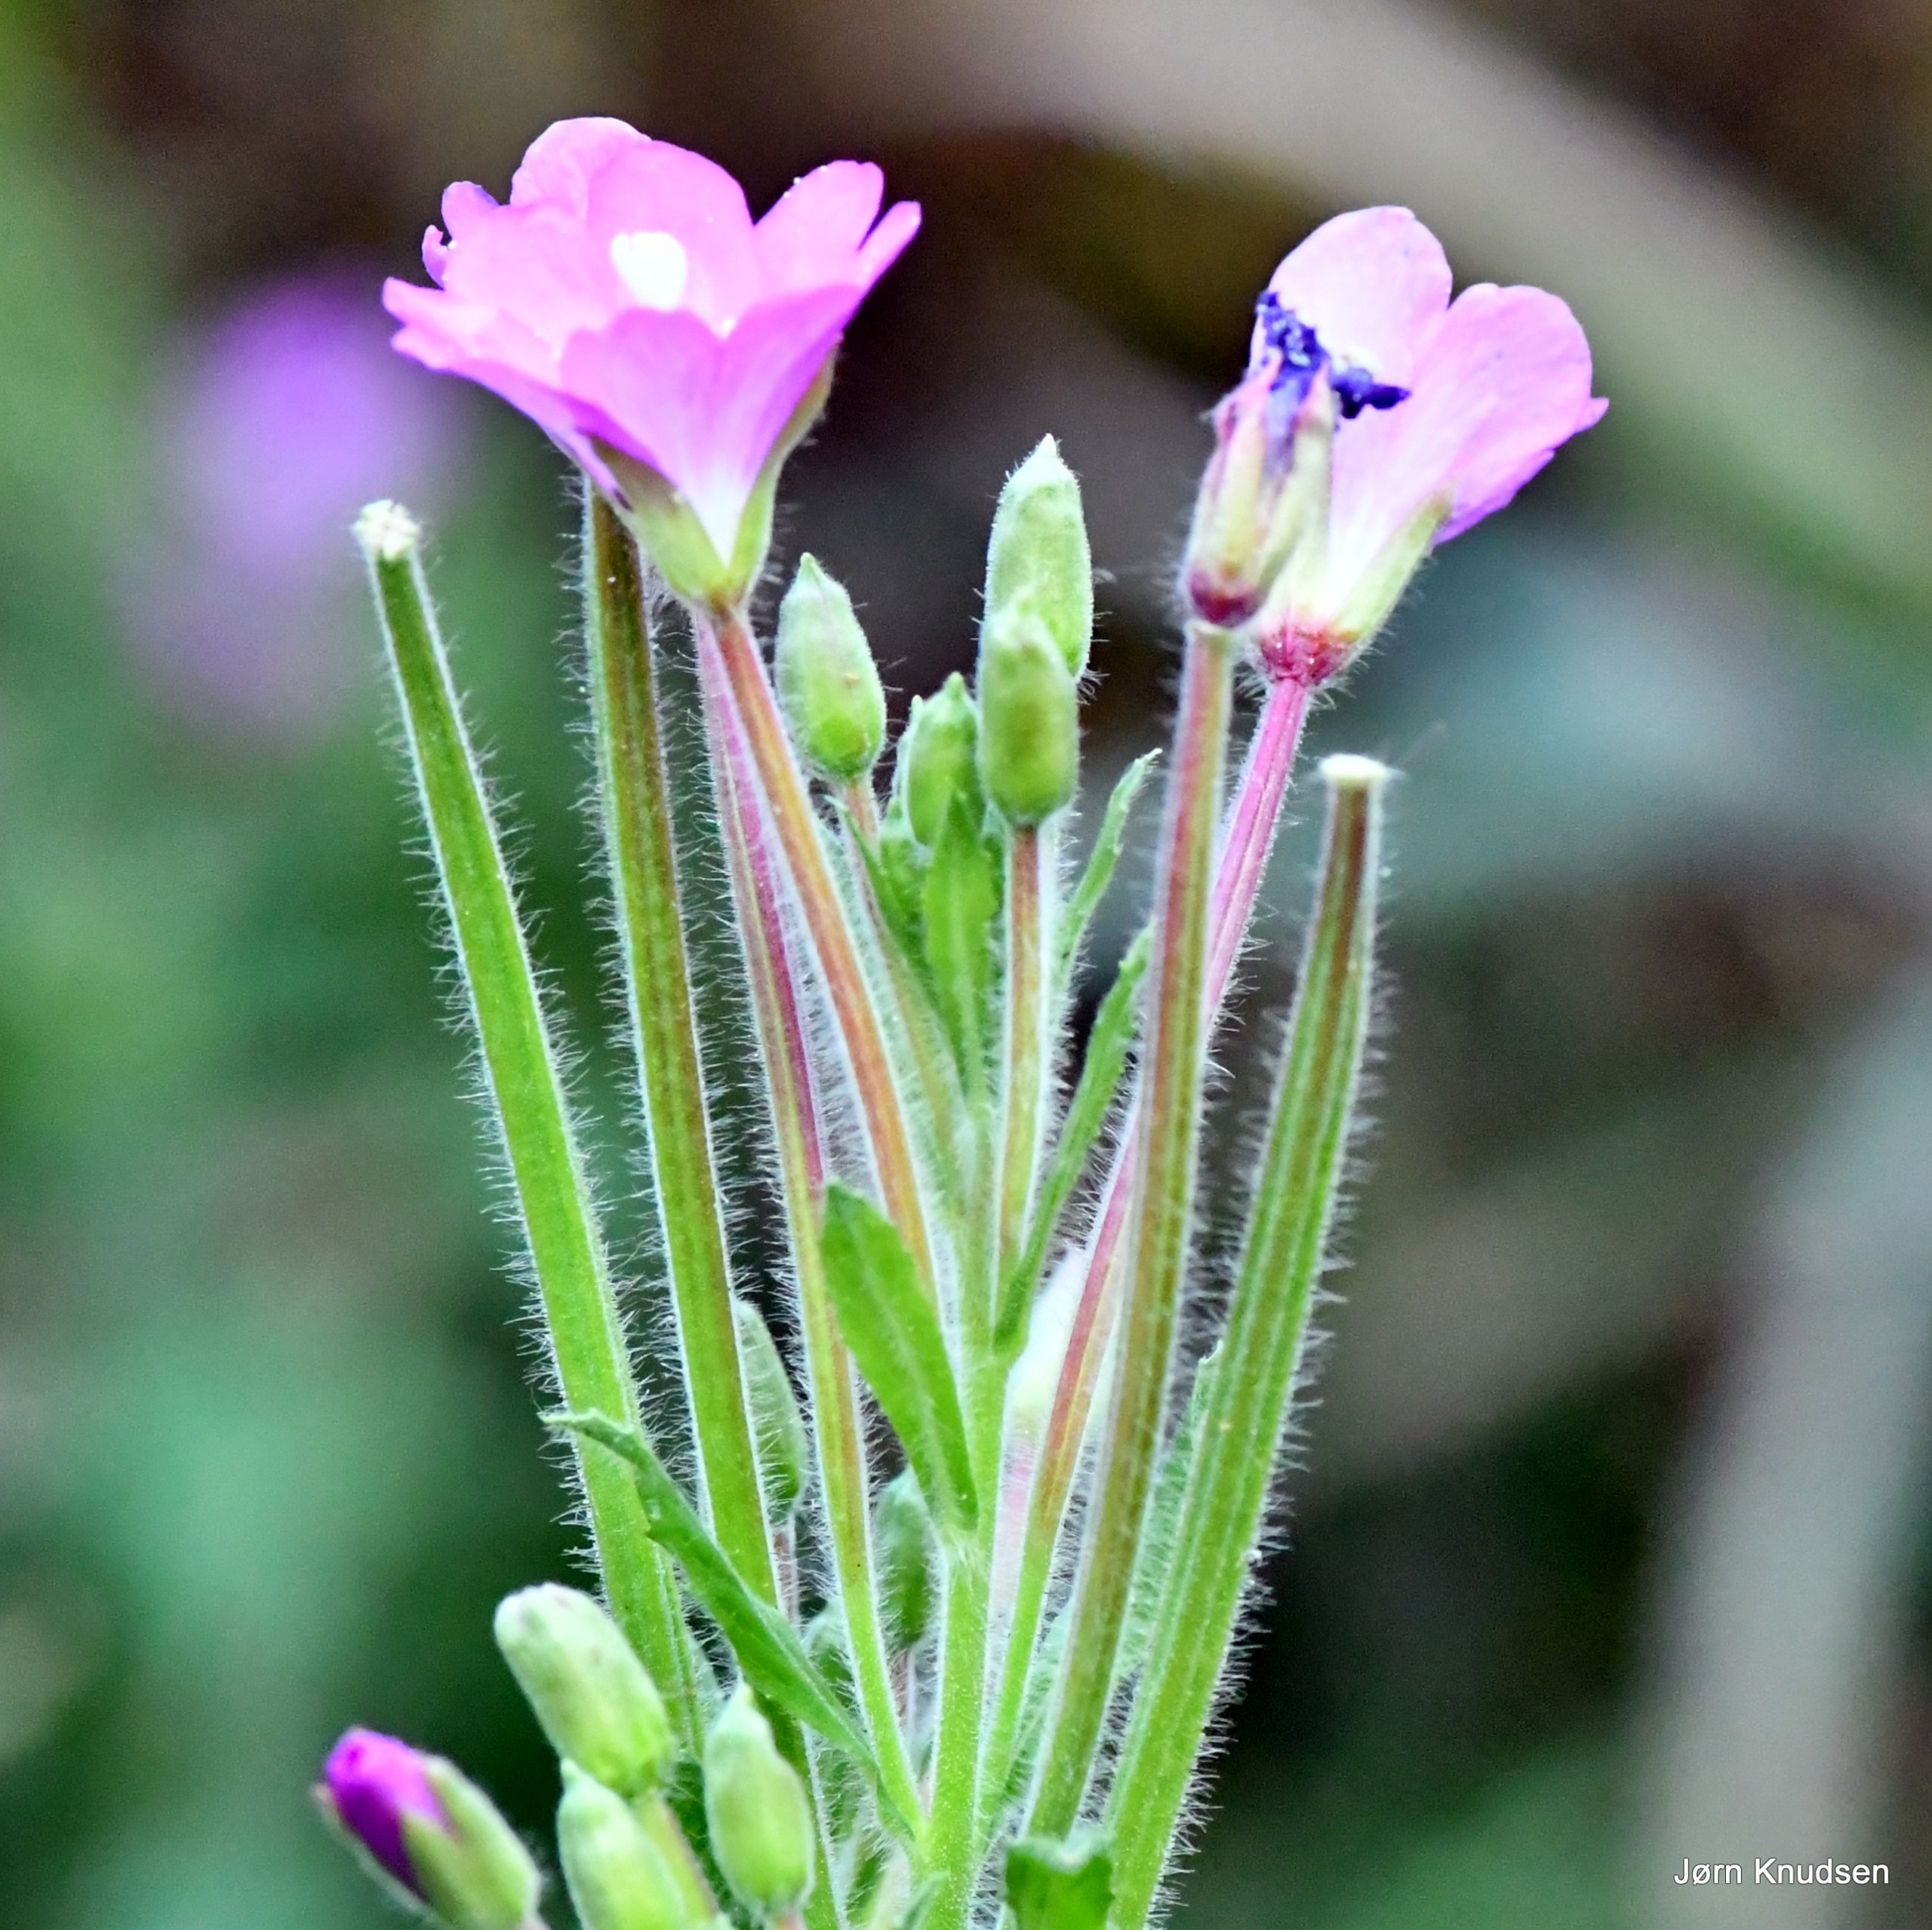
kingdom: Plantae
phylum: Tracheophyta
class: Magnoliopsida
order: Myrtales
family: Onagraceae
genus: Epilobium
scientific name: Epilobium hirsutum
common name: Lådden dueurt
